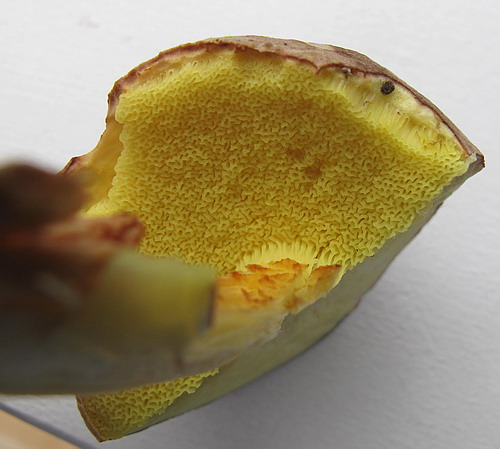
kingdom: Fungi
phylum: Basidiomycota
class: Agaricomycetes
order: Boletales
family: Boletaceae
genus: Xerocomus
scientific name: Xerocomus subtomentosus
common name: filtet rørhat
